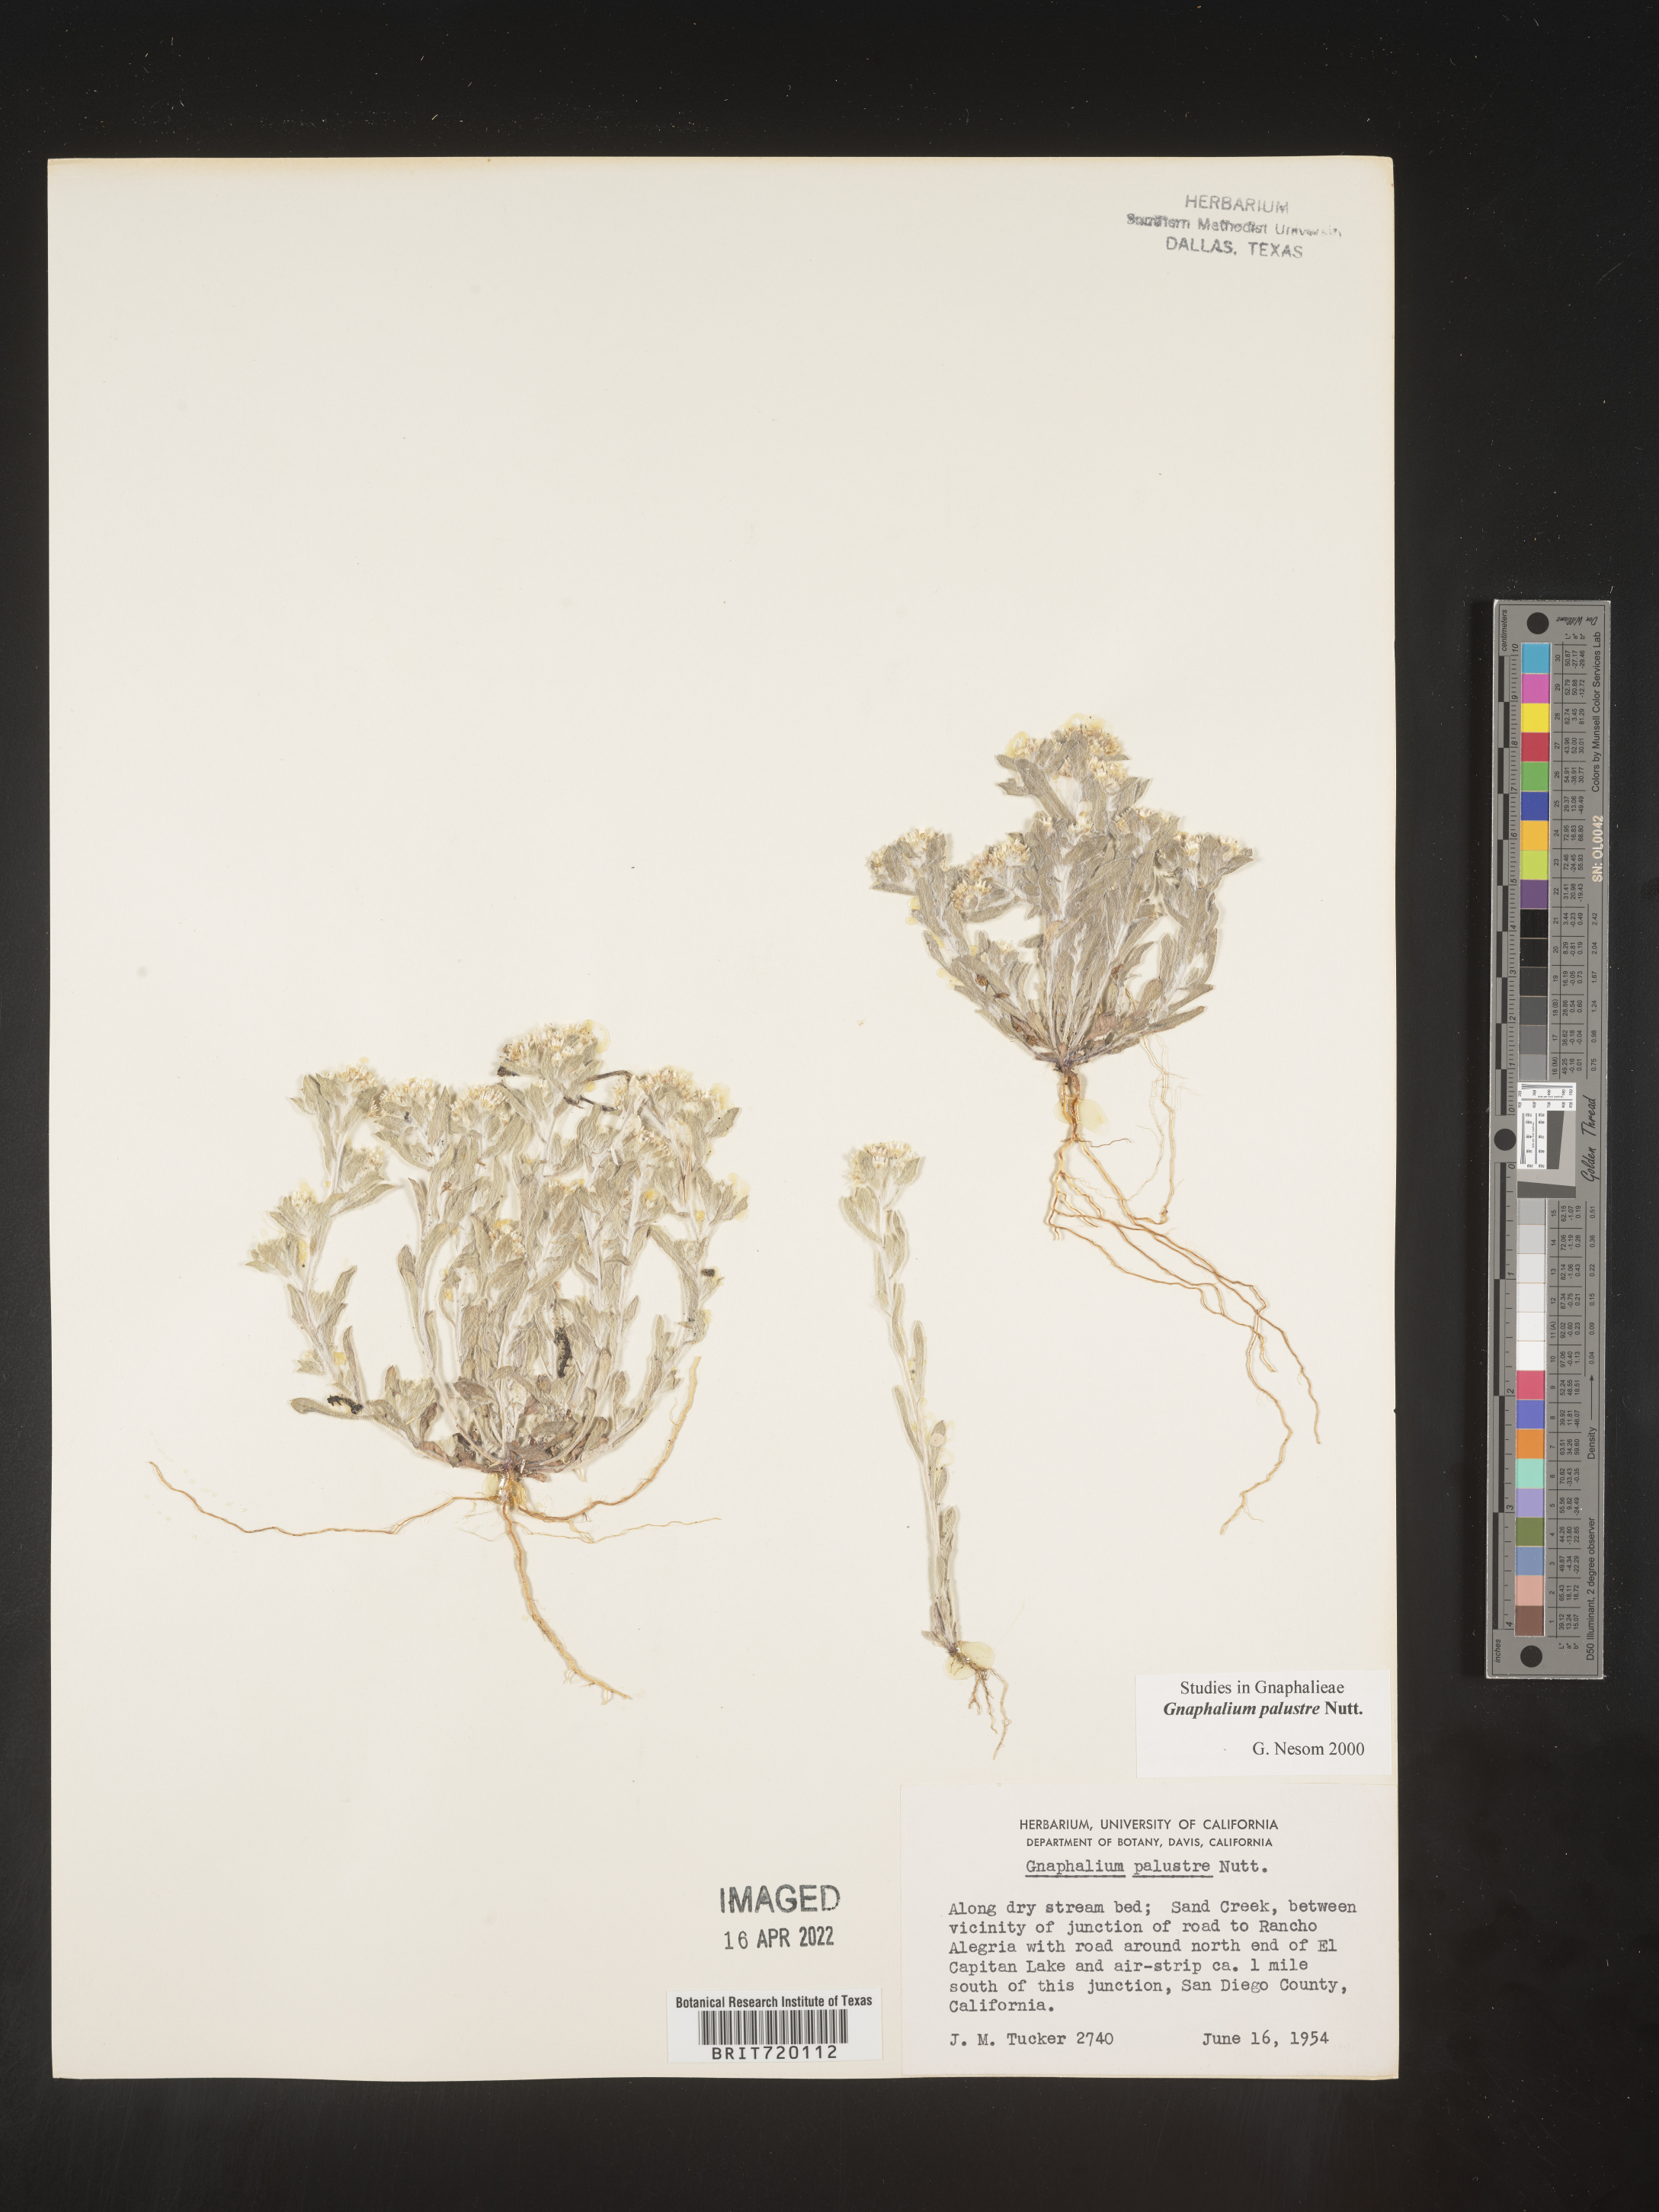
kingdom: Plantae
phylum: Tracheophyta
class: Magnoliopsida
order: Asterales
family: Asteraceae
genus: Gnaphalium
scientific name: Gnaphalium palustre
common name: Western marsh cudweed
